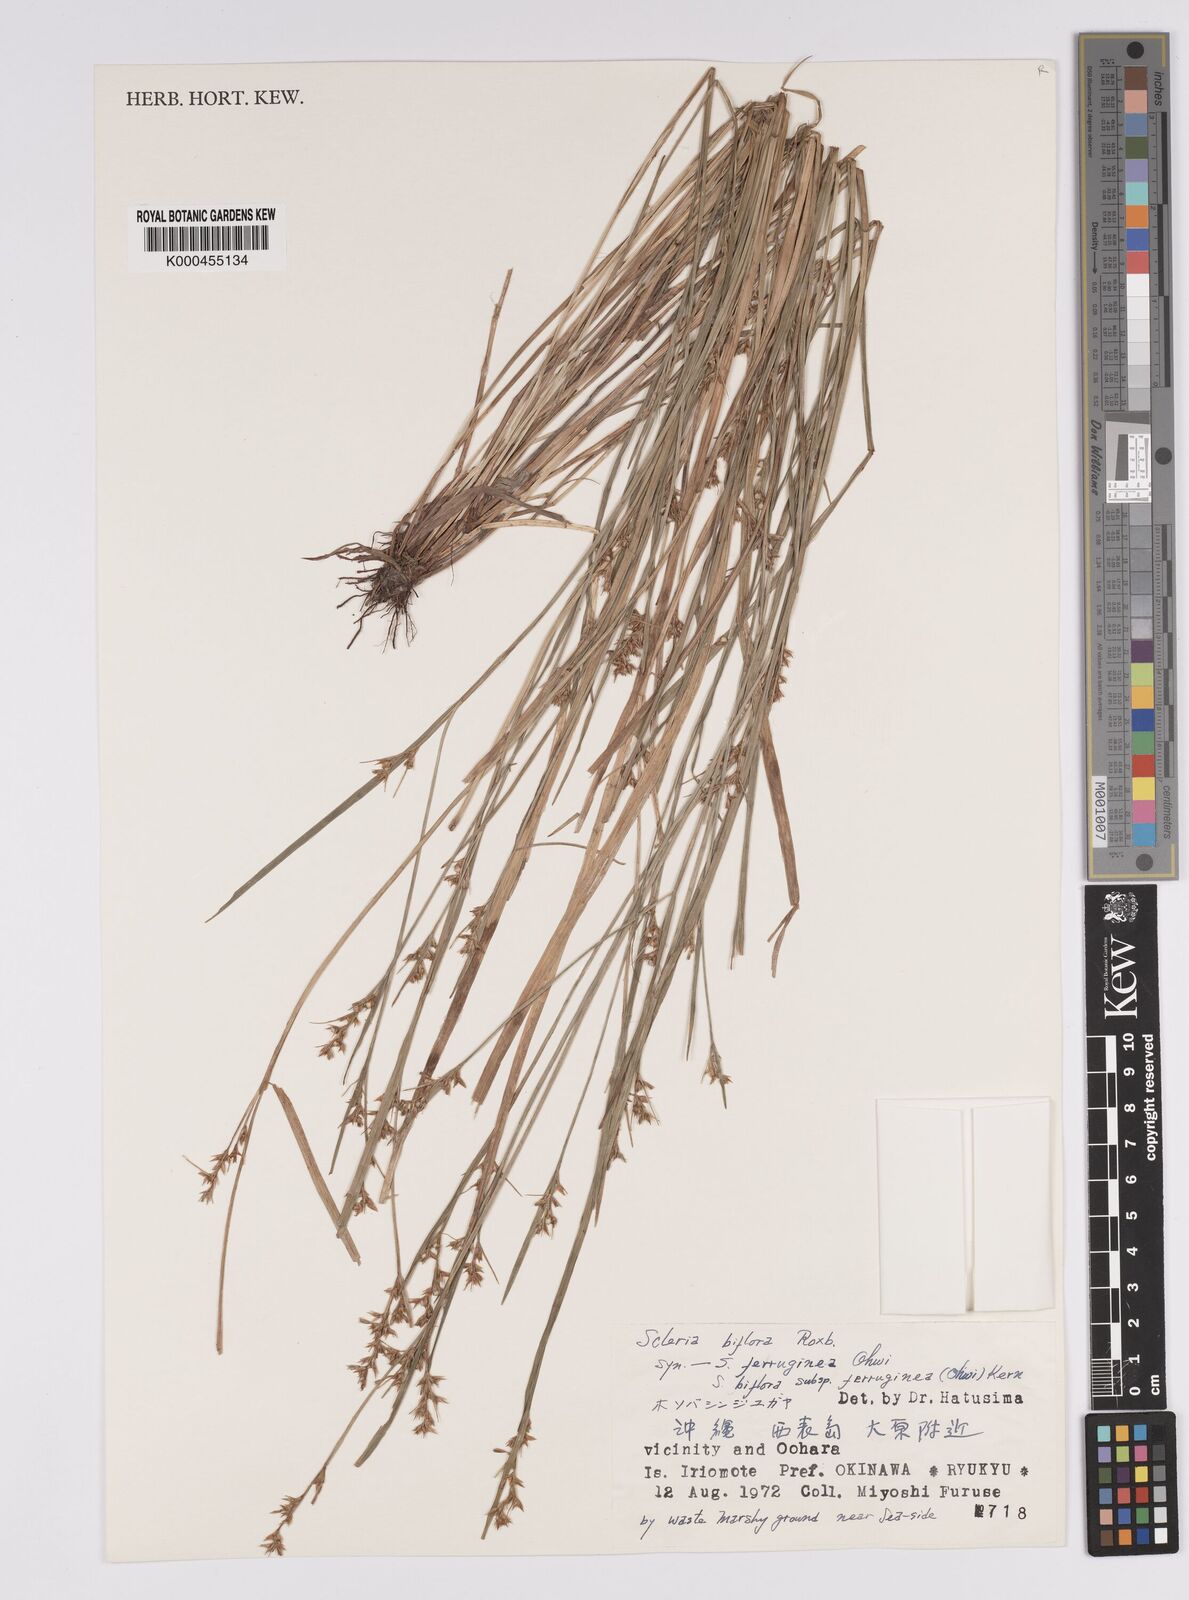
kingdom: Plantae
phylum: Tracheophyta
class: Liliopsida
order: Poales
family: Cyperaceae
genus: Scleria
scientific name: Scleria biflora
